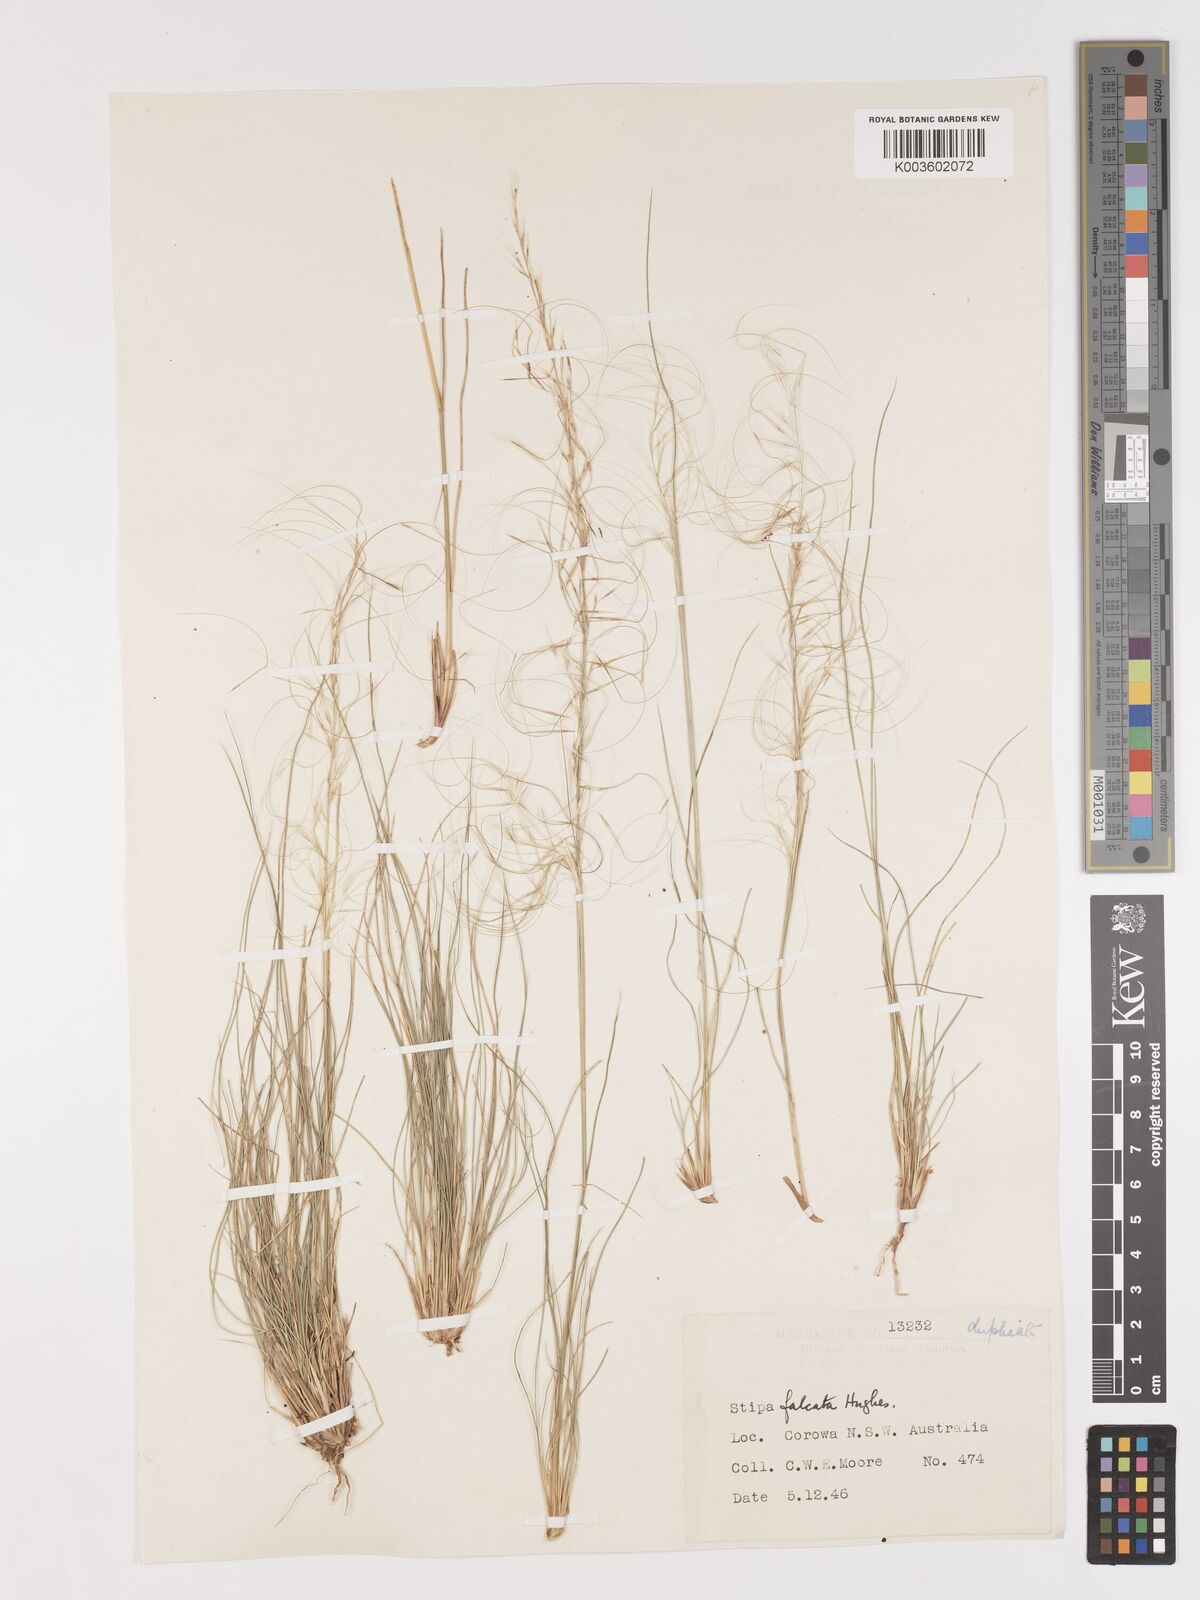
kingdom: Plantae
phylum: Tracheophyta
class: Liliopsida
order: Poales
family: Poaceae
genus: Austrostipa
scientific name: Austrostipa scabra
